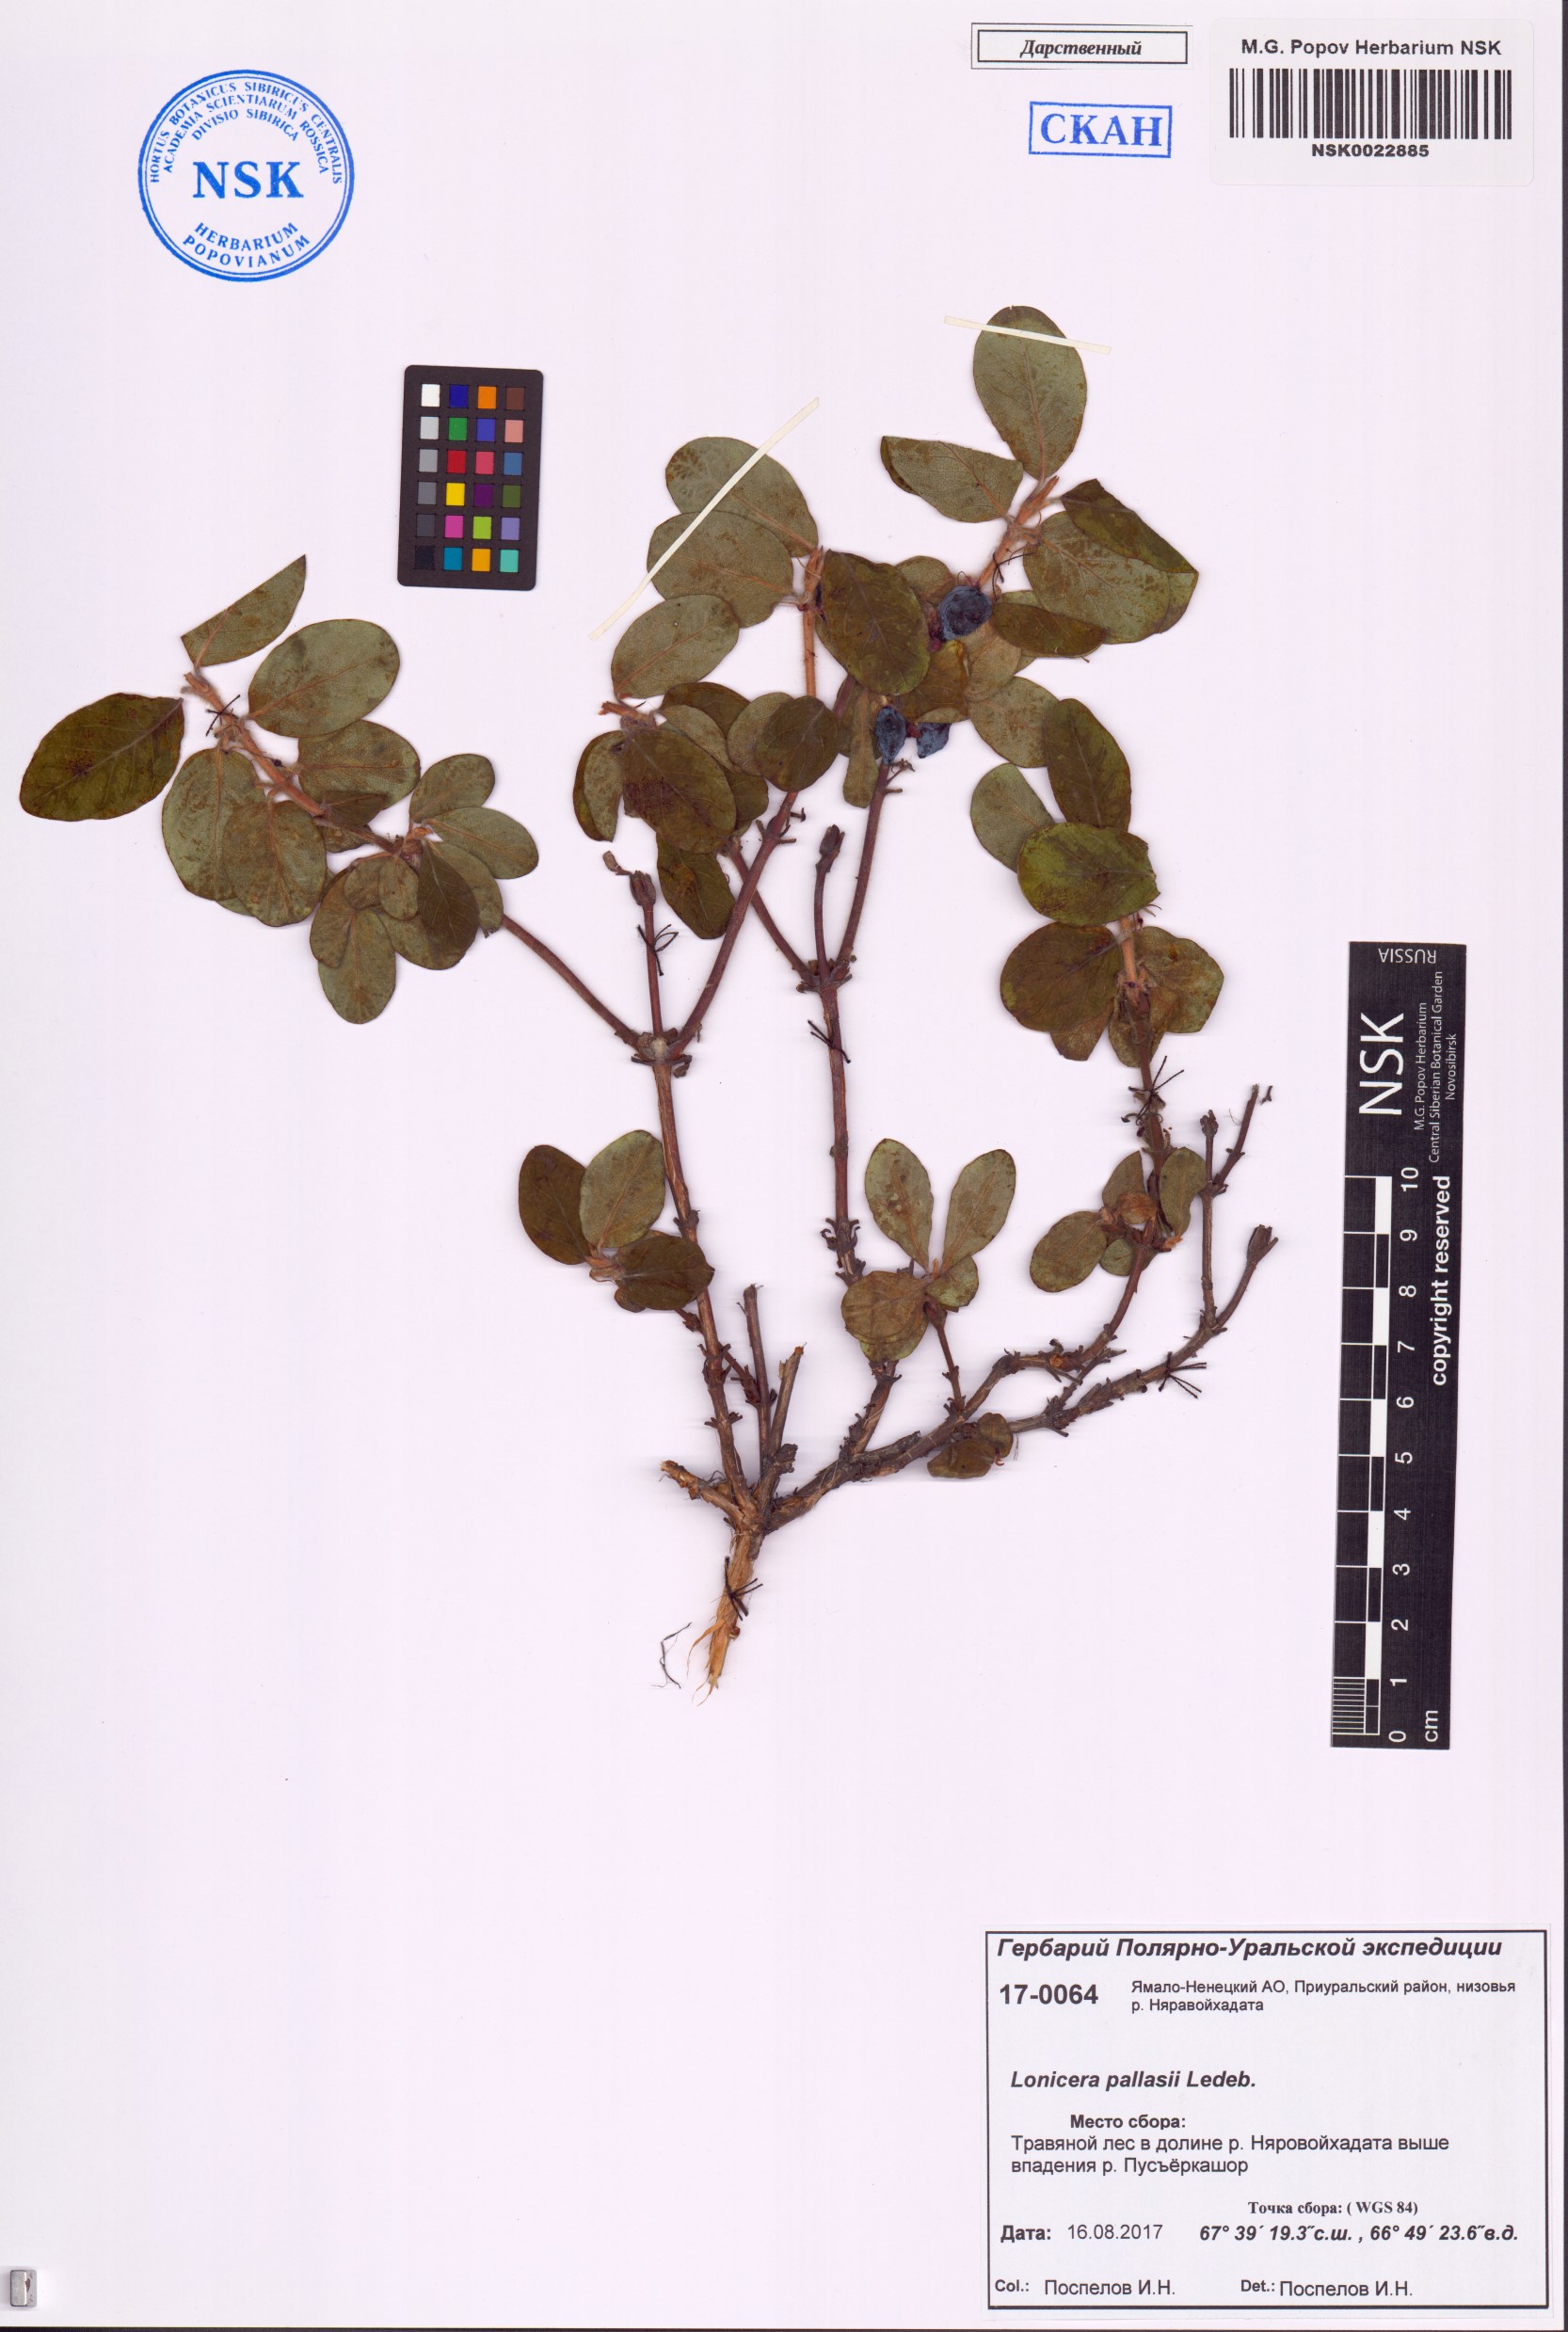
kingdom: Plantae
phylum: Tracheophyta
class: Magnoliopsida
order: Dipsacales
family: Caprifoliaceae
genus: Lonicera
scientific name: Lonicera caerulea
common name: Blue honeysuckle
